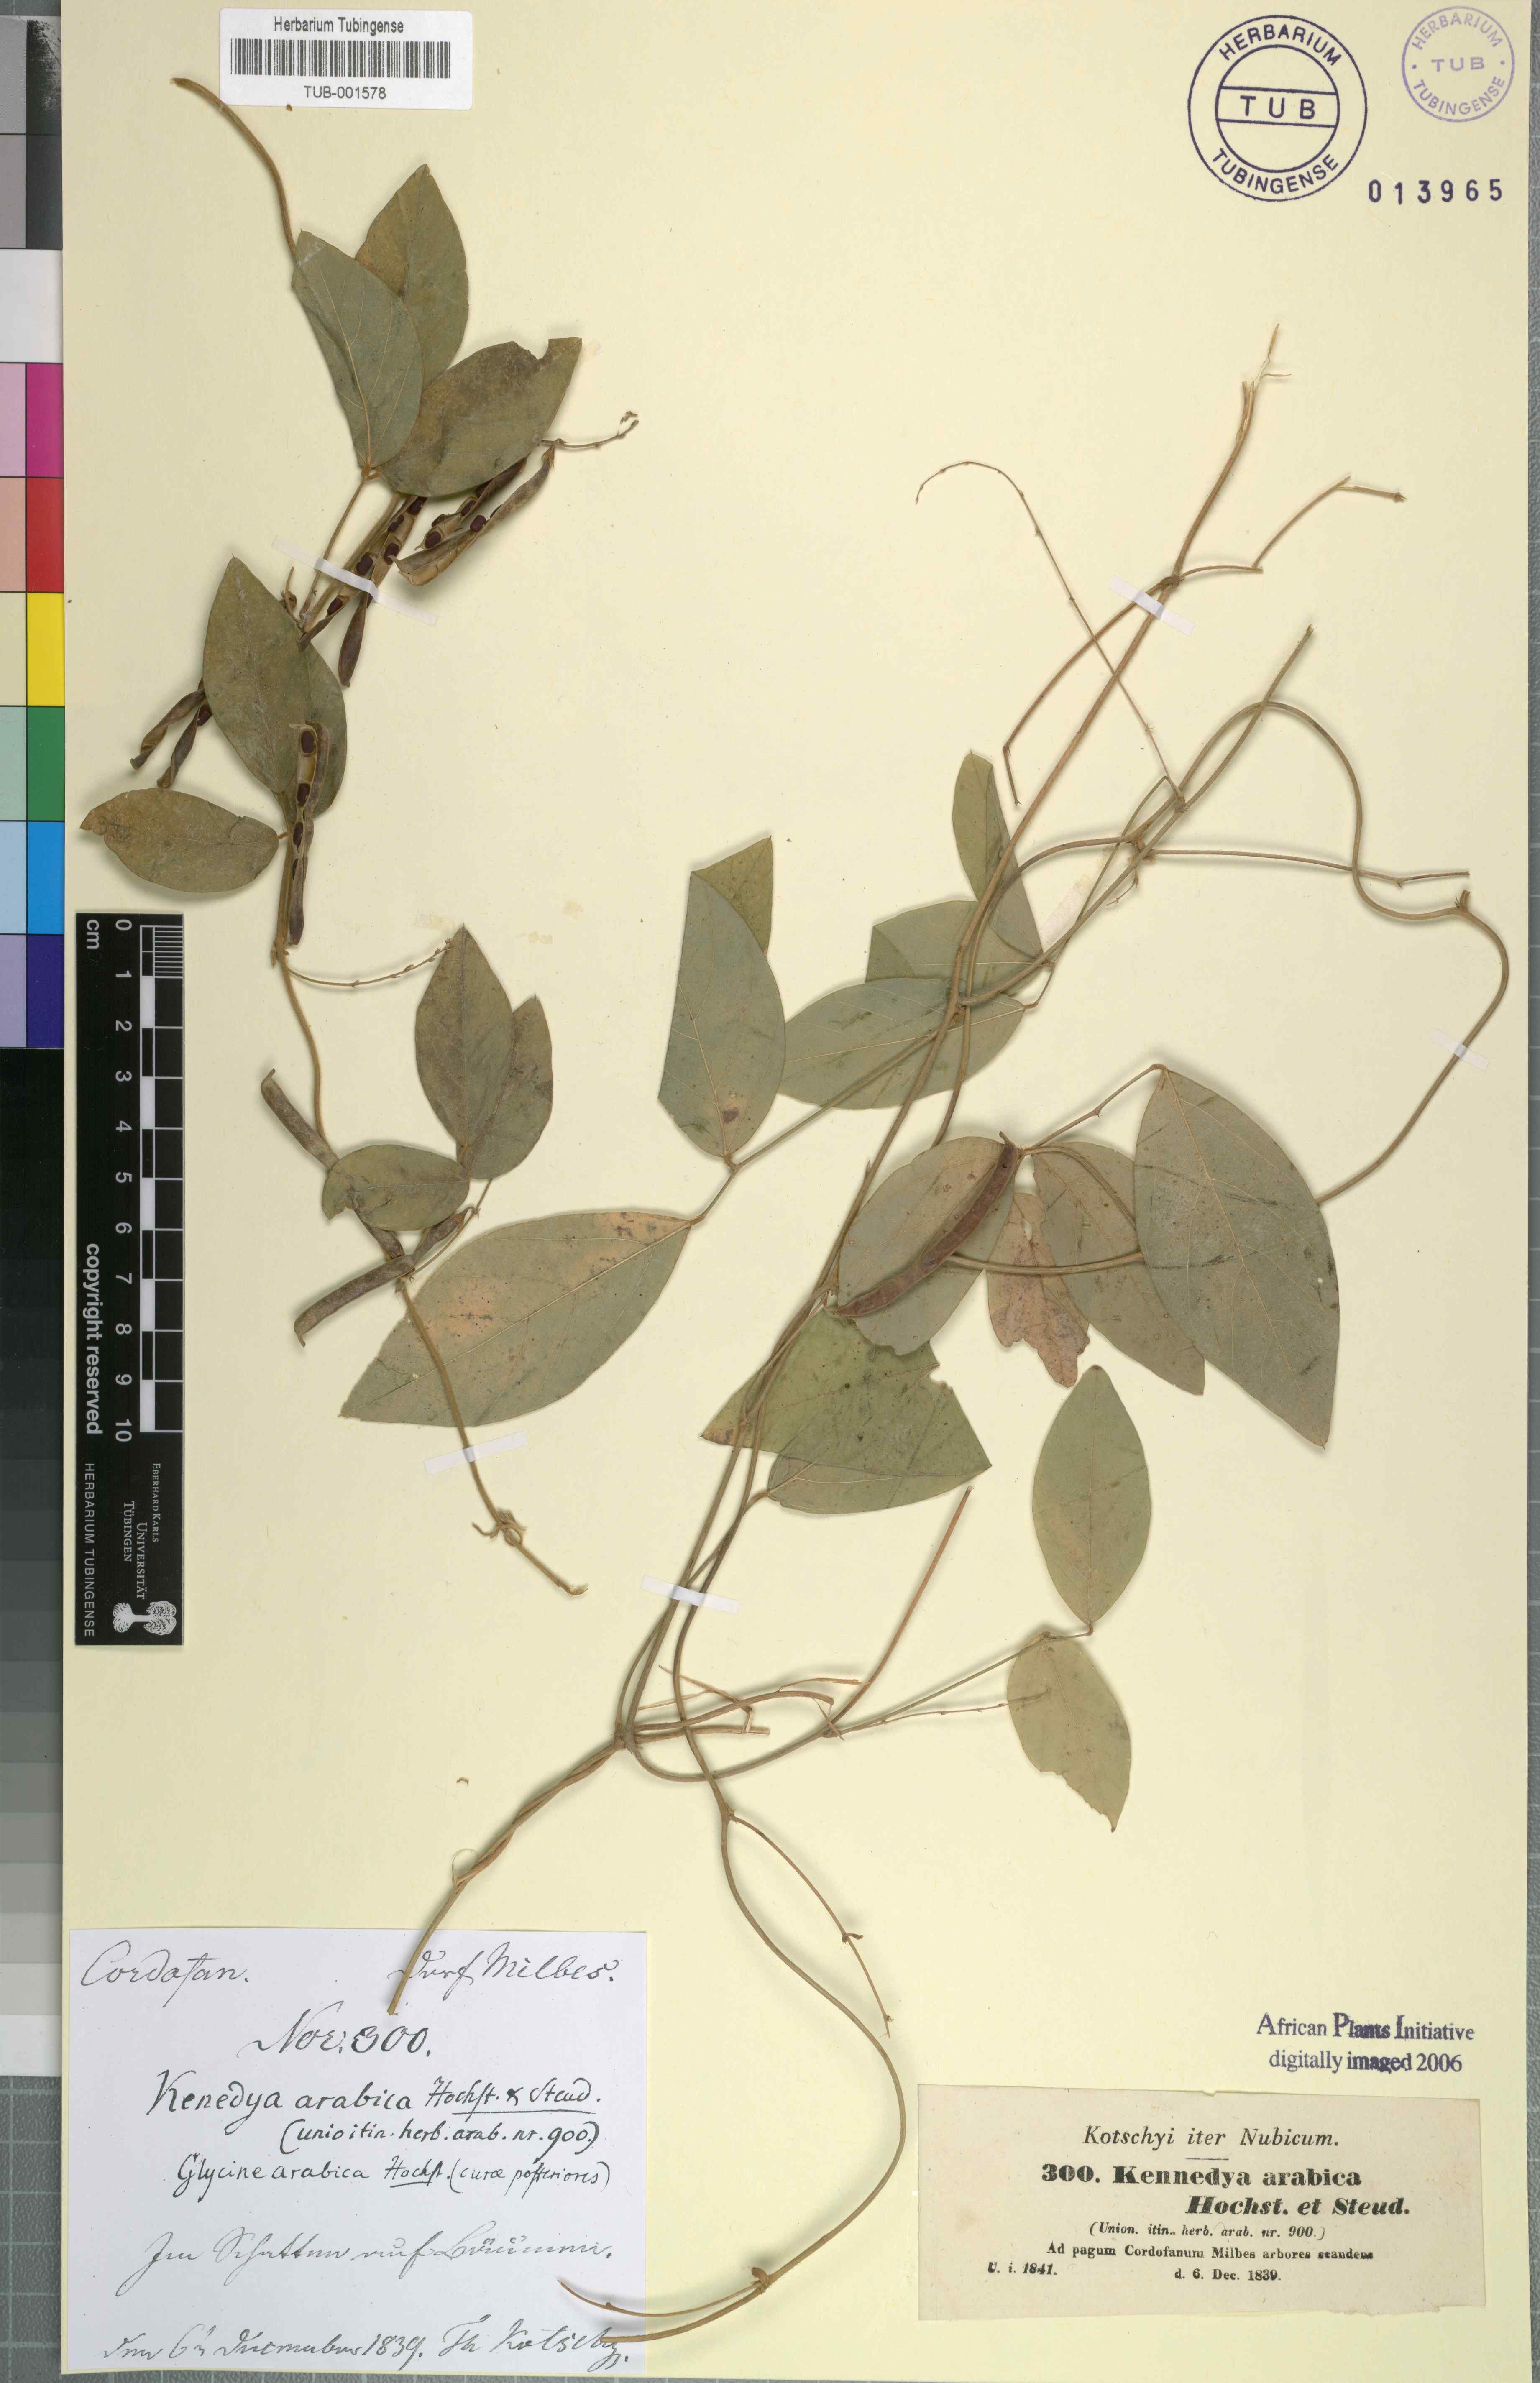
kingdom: Plantae
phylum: Tracheophyta
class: Magnoliopsida
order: Fabales
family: Fabaceae
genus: Teramnus
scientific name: Teramnus labialis
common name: Blue wiss
